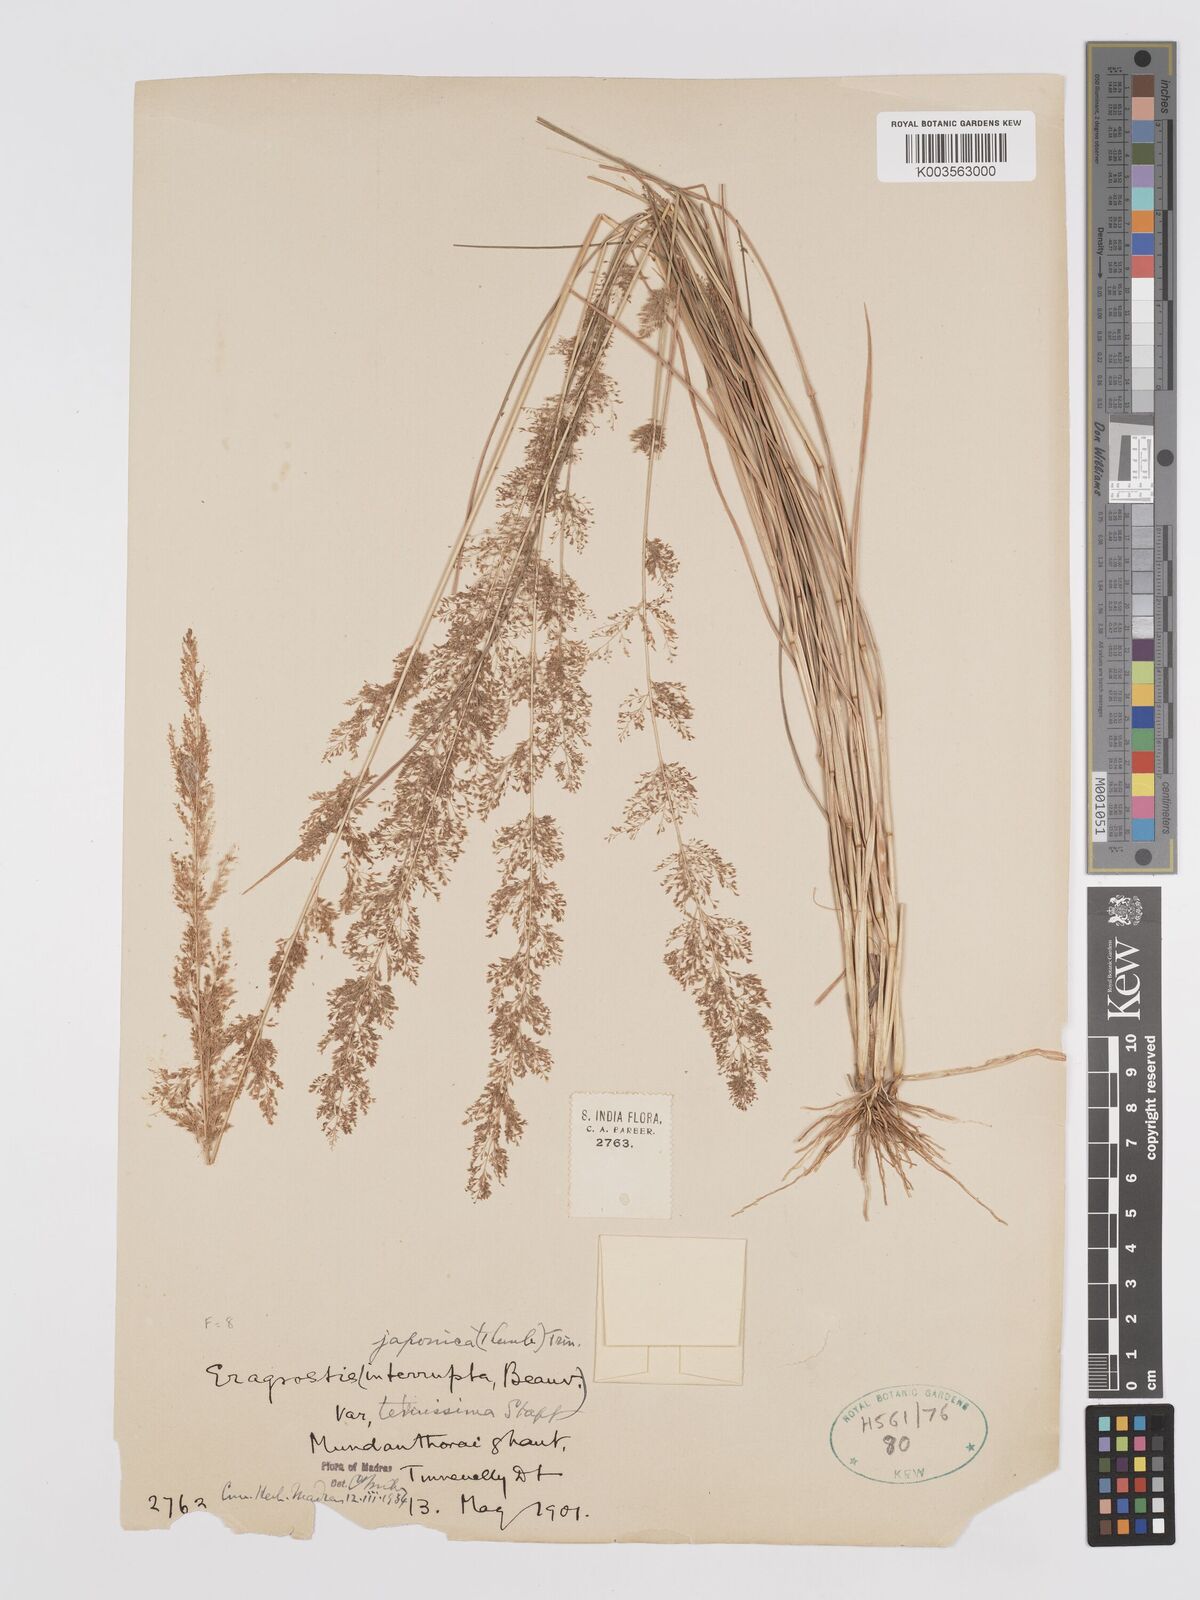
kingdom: Plantae
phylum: Tracheophyta
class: Liliopsida
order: Poales
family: Poaceae
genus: Eragrostis
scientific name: Eragrostis japonica
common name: Pond lovegrass
